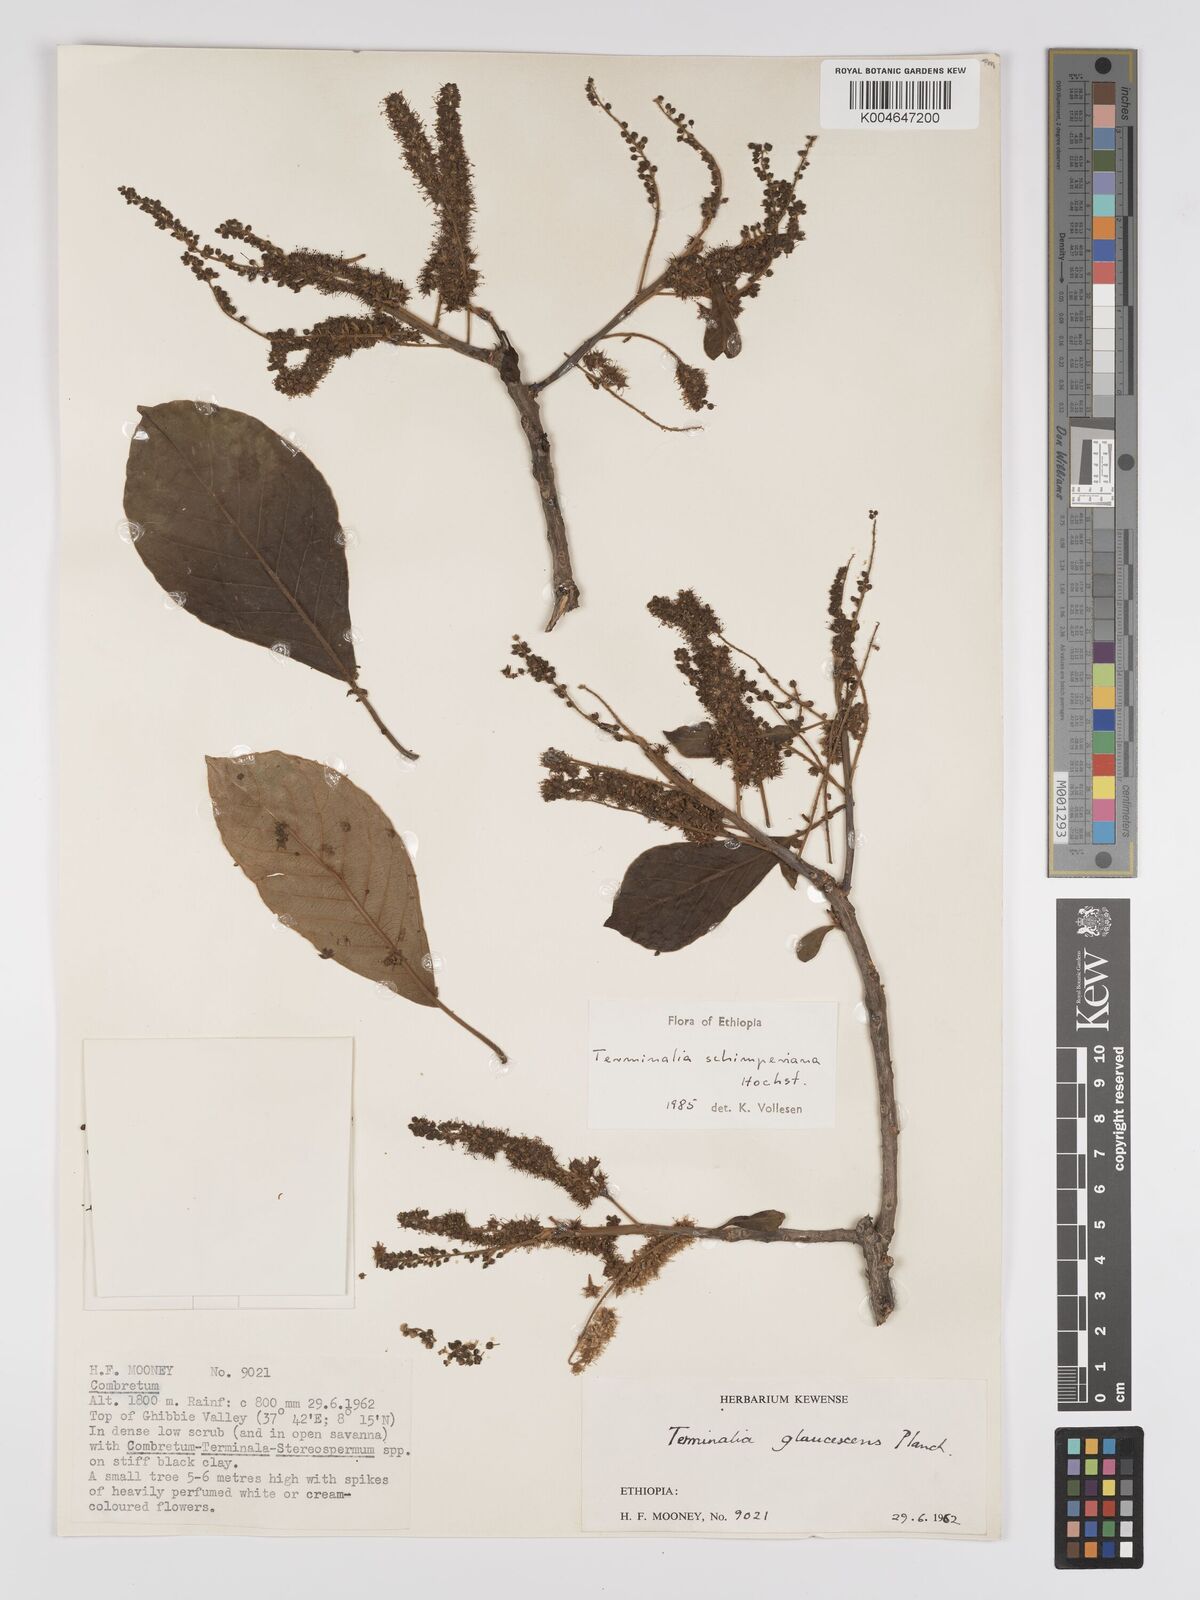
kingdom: Plantae
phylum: Tracheophyta
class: Magnoliopsida
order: Myrtales
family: Combretaceae
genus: Terminalia
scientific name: Terminalia schimperiana
